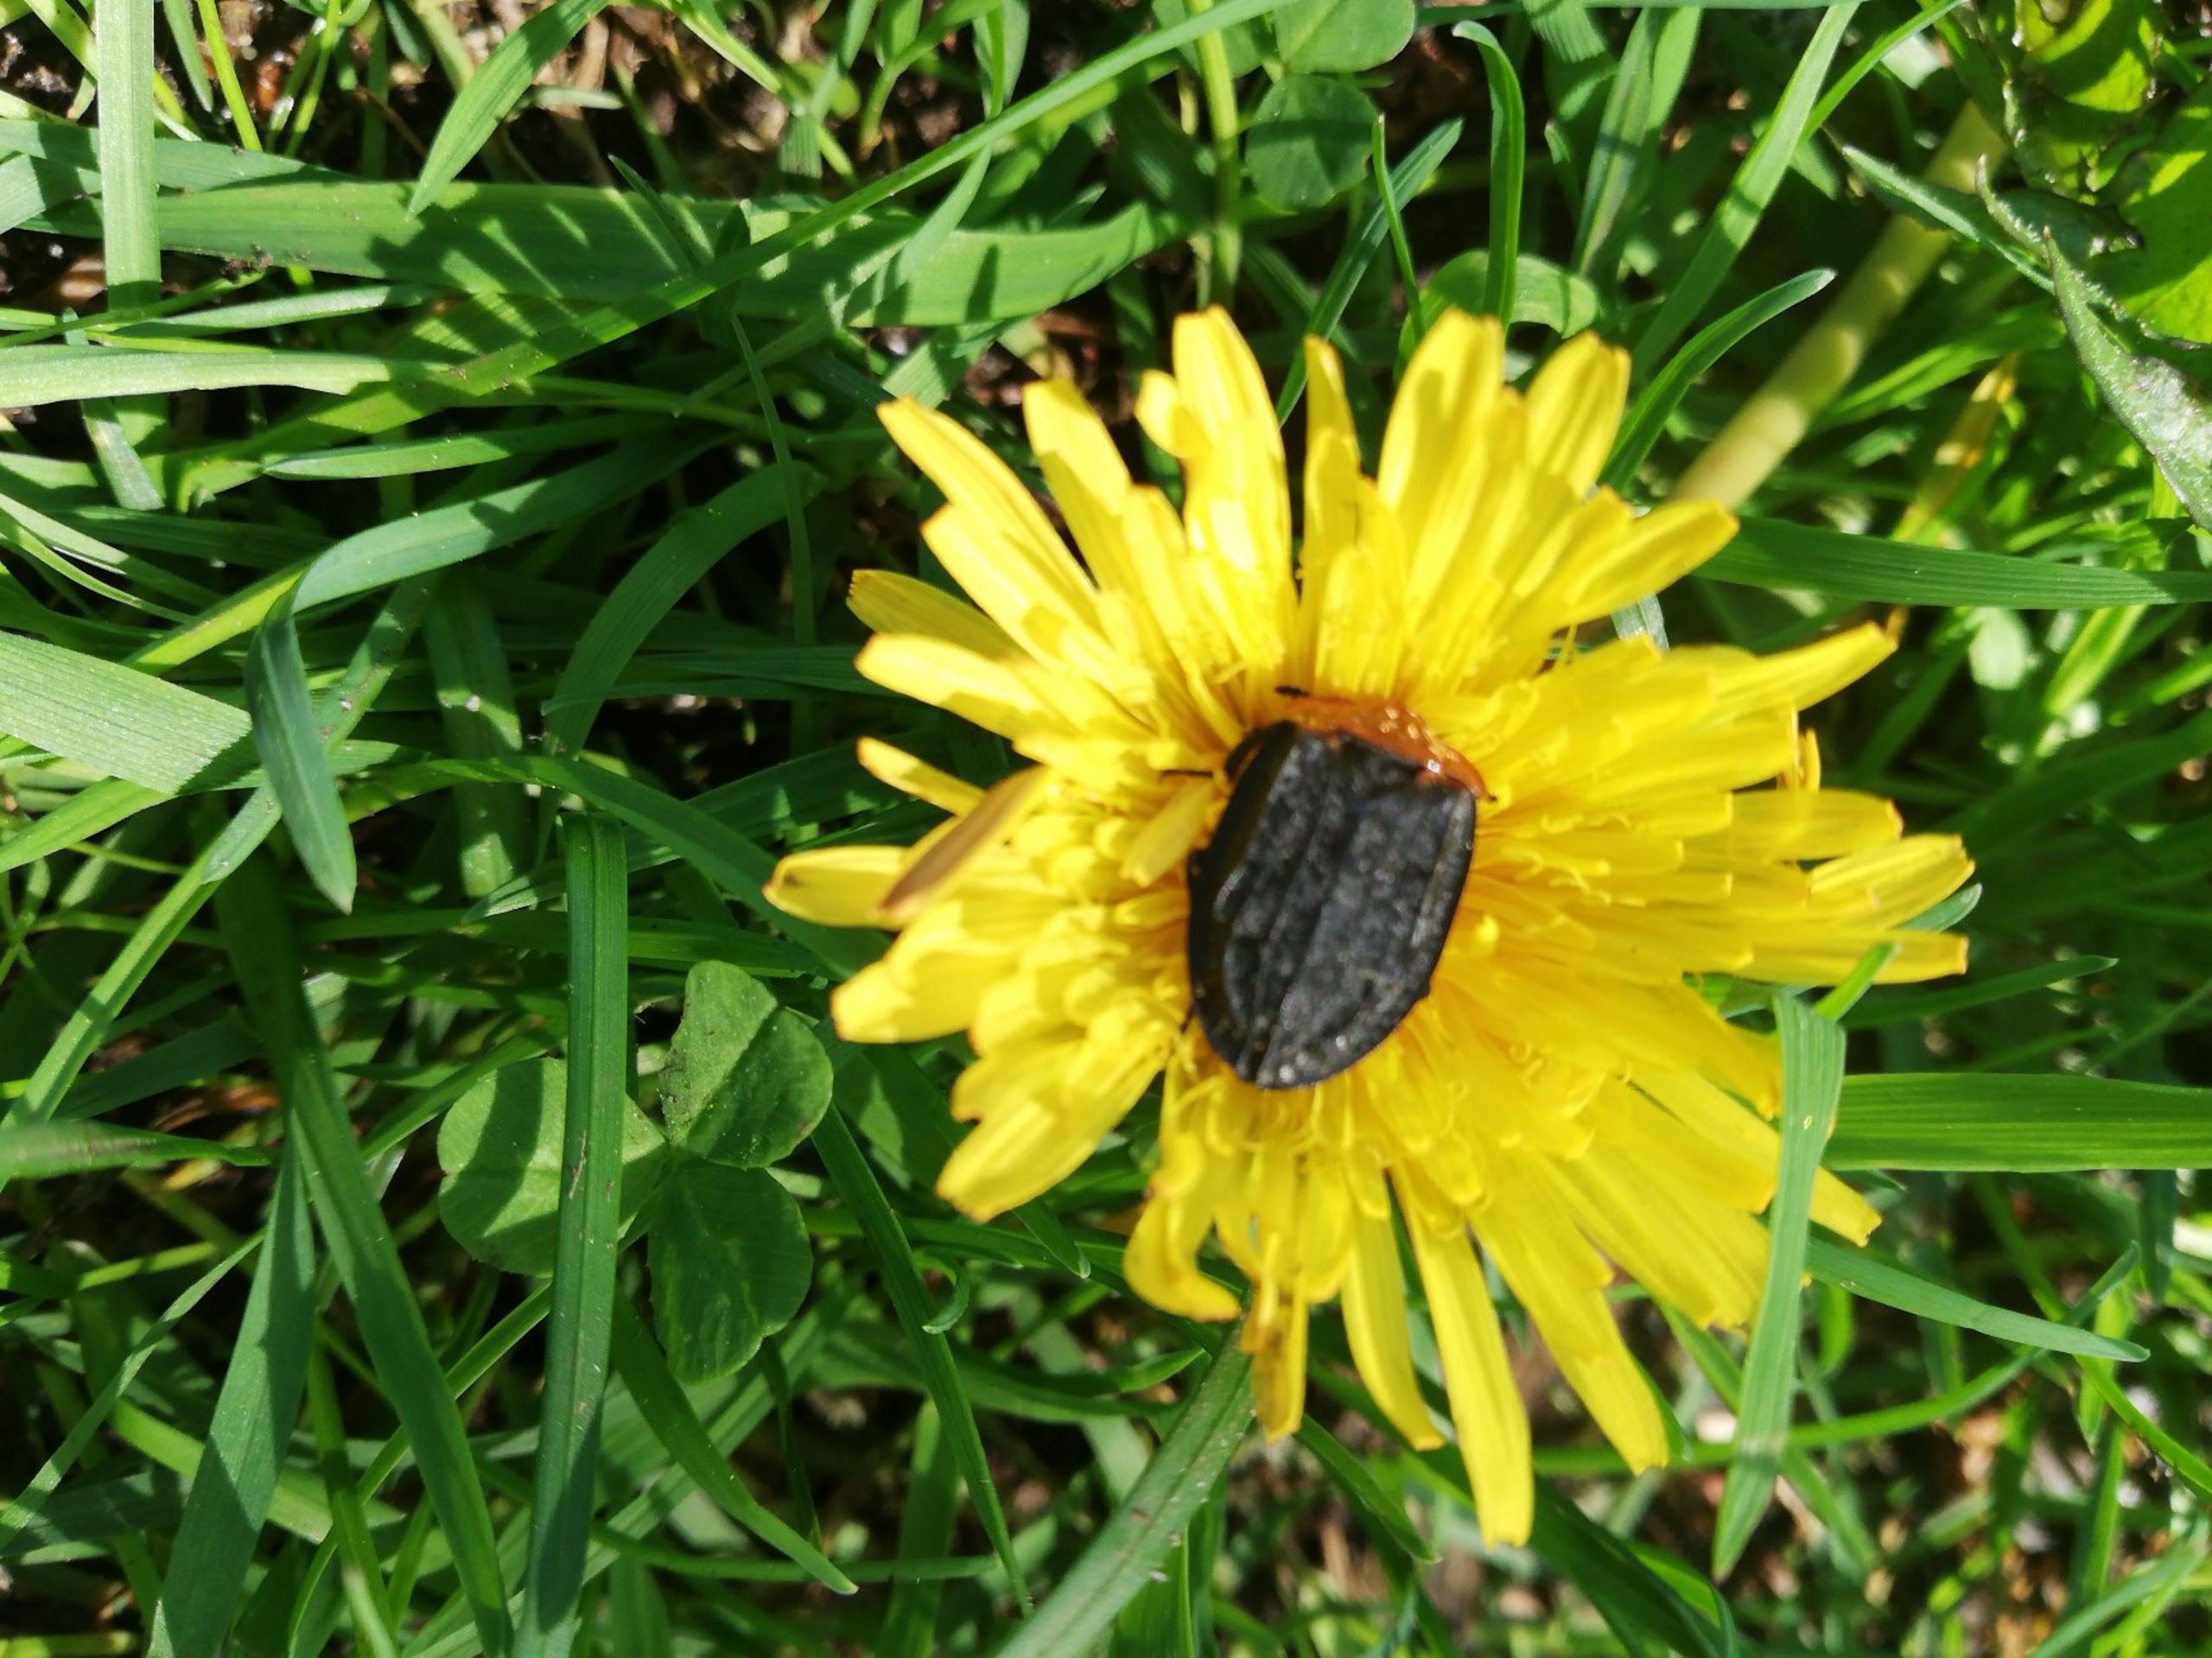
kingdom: Animalia
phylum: Arthropoda
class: Insecta
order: Coleoptera
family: Staphylinidae
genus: Oiceoptoma
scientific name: Oiceoptoma thoracicum
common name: Rødbrystet ådselbille
